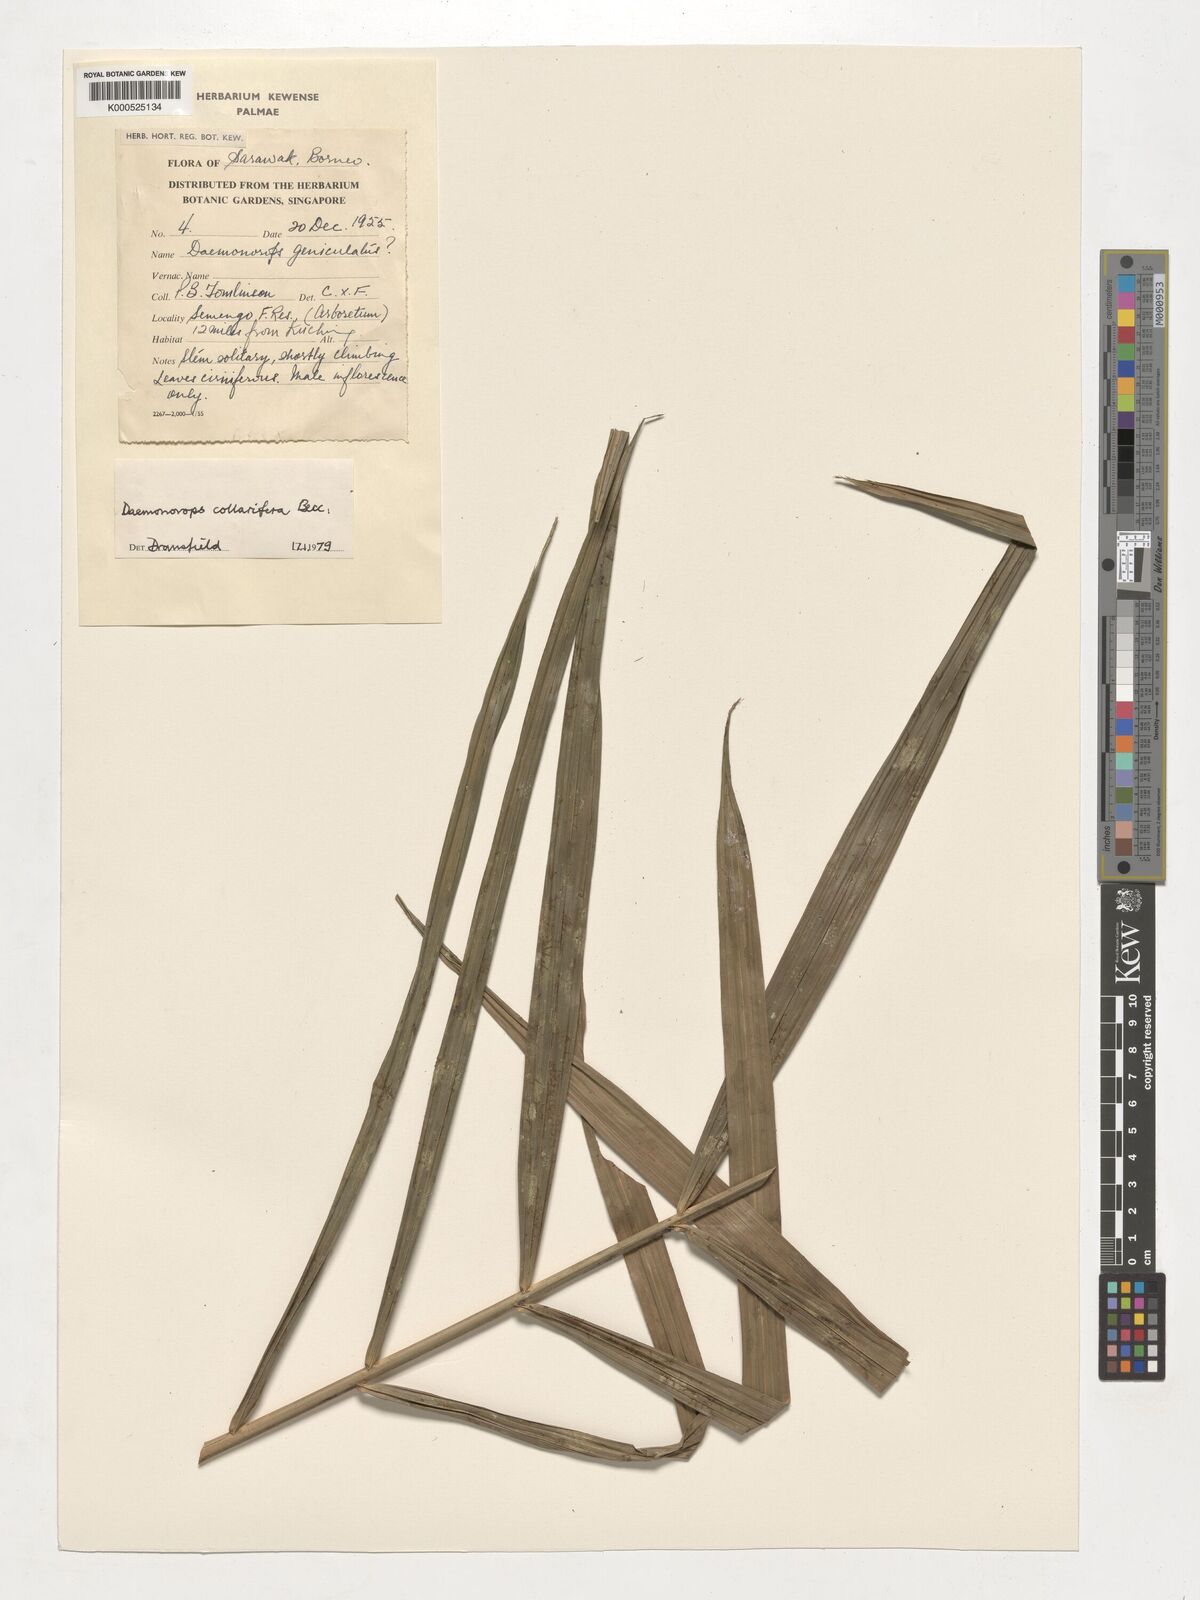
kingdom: Plantae
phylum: Tracheophyta
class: Liliopsida
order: Arecales
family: Arecaceae
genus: Calamus
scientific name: Calamus geniculatus
